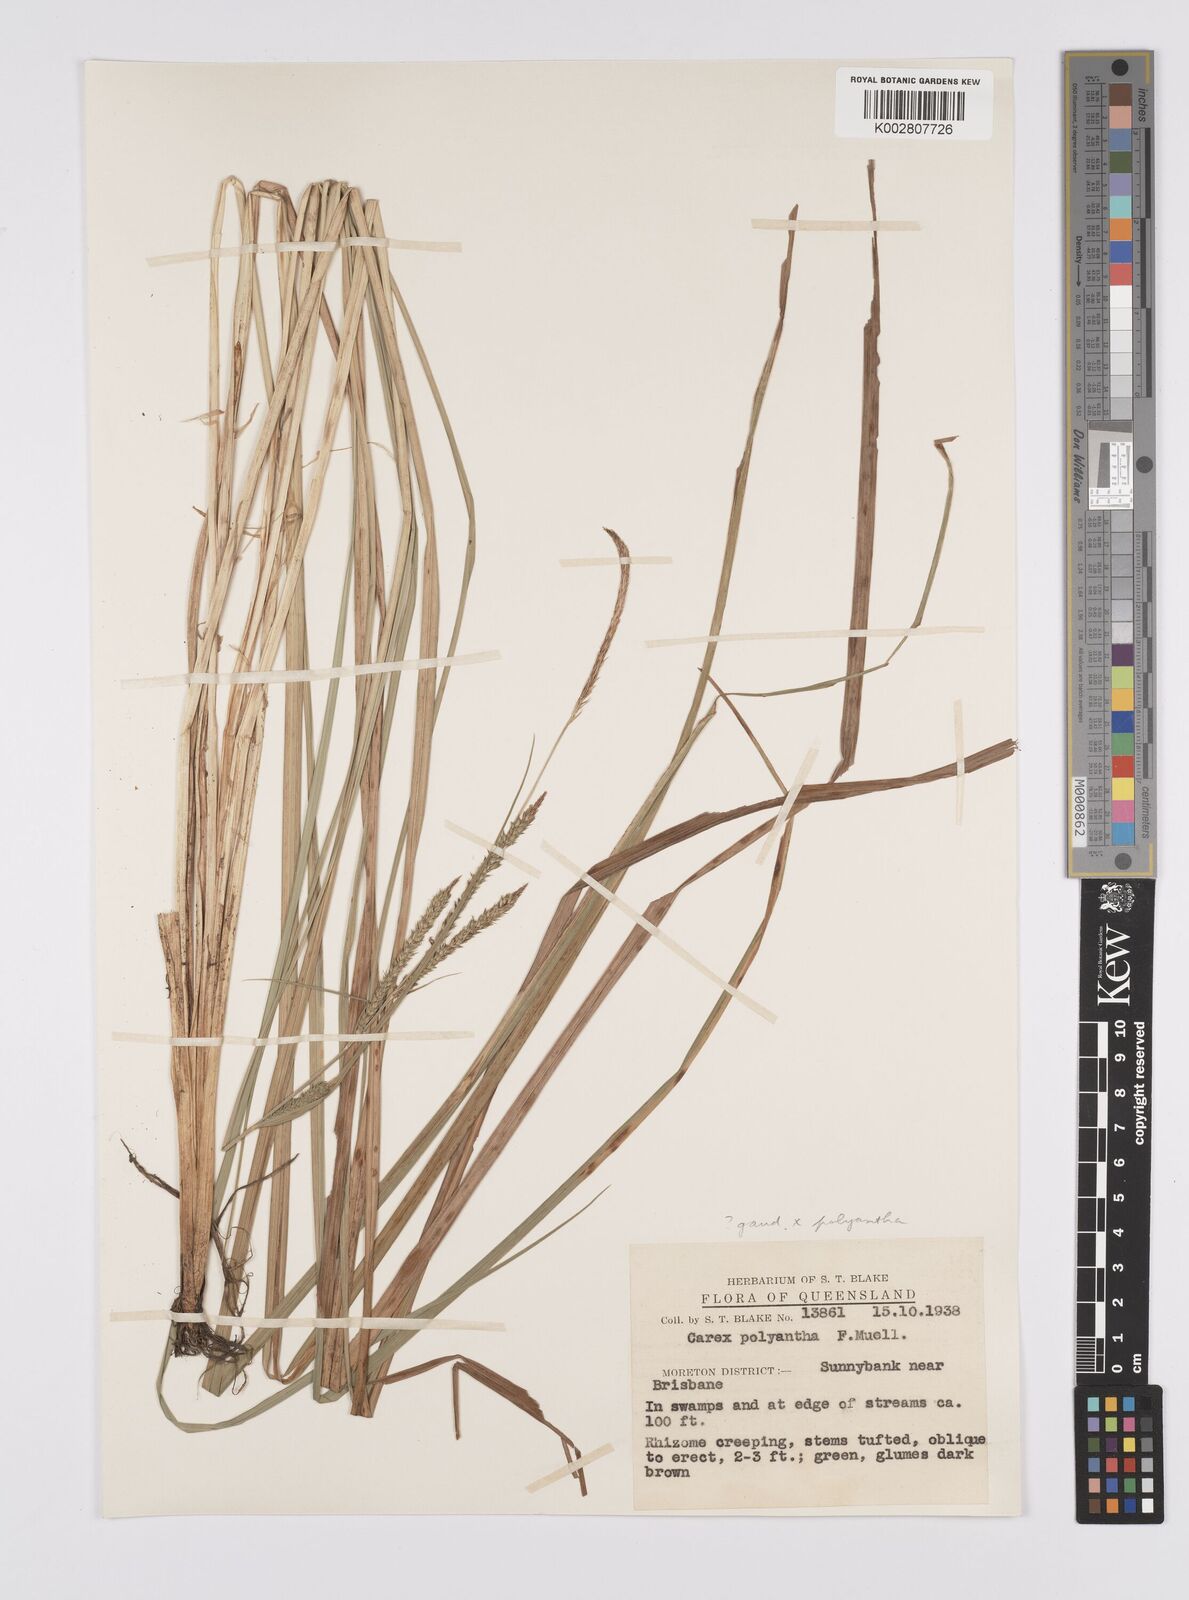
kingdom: Plantae
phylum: Tracheophyta
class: Liliopsida
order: Poales
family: Cyperaceae
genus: Carex
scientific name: Carex gaudichaudiana
